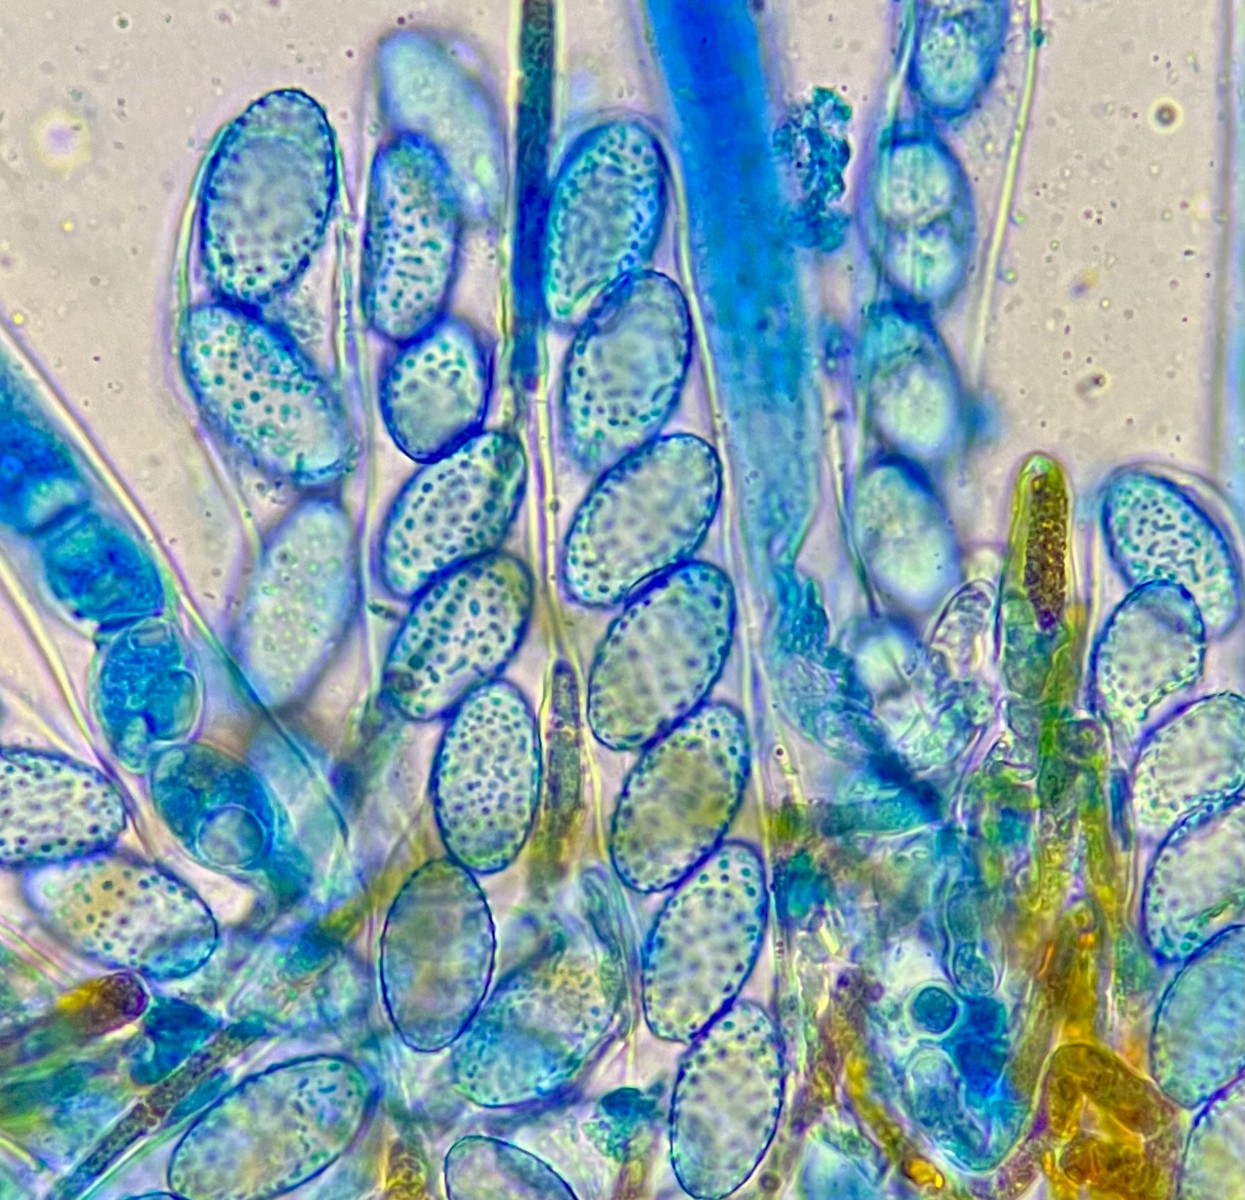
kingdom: Fungi
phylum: Ascomycota
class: Pezizomycetes
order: Pezizales
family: Pyronemataceae
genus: Neottiella
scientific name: Neottiella vivida
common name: sand-mosbæger
